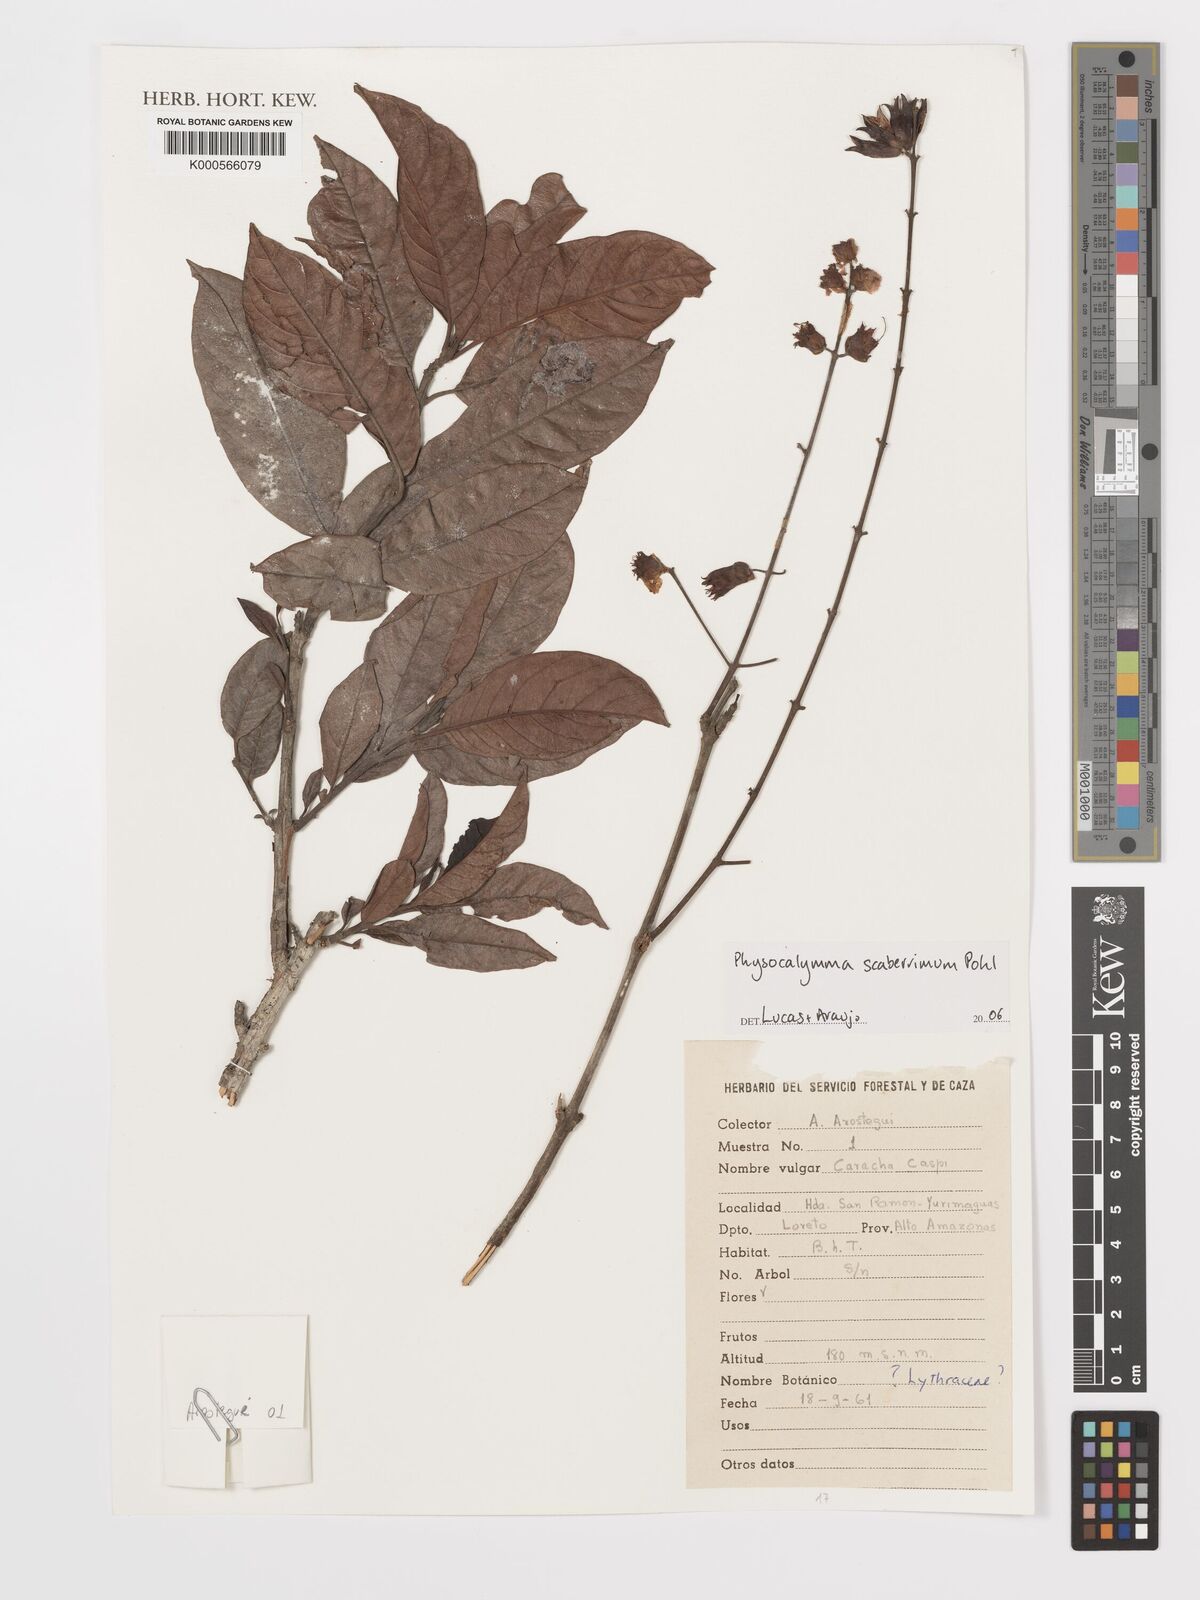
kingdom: Plantae
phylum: Tracheophyta
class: Magnoliopsida
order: Myrtales
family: Lythraceae
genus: Physocalymma
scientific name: Physocalymma scaberrimum
